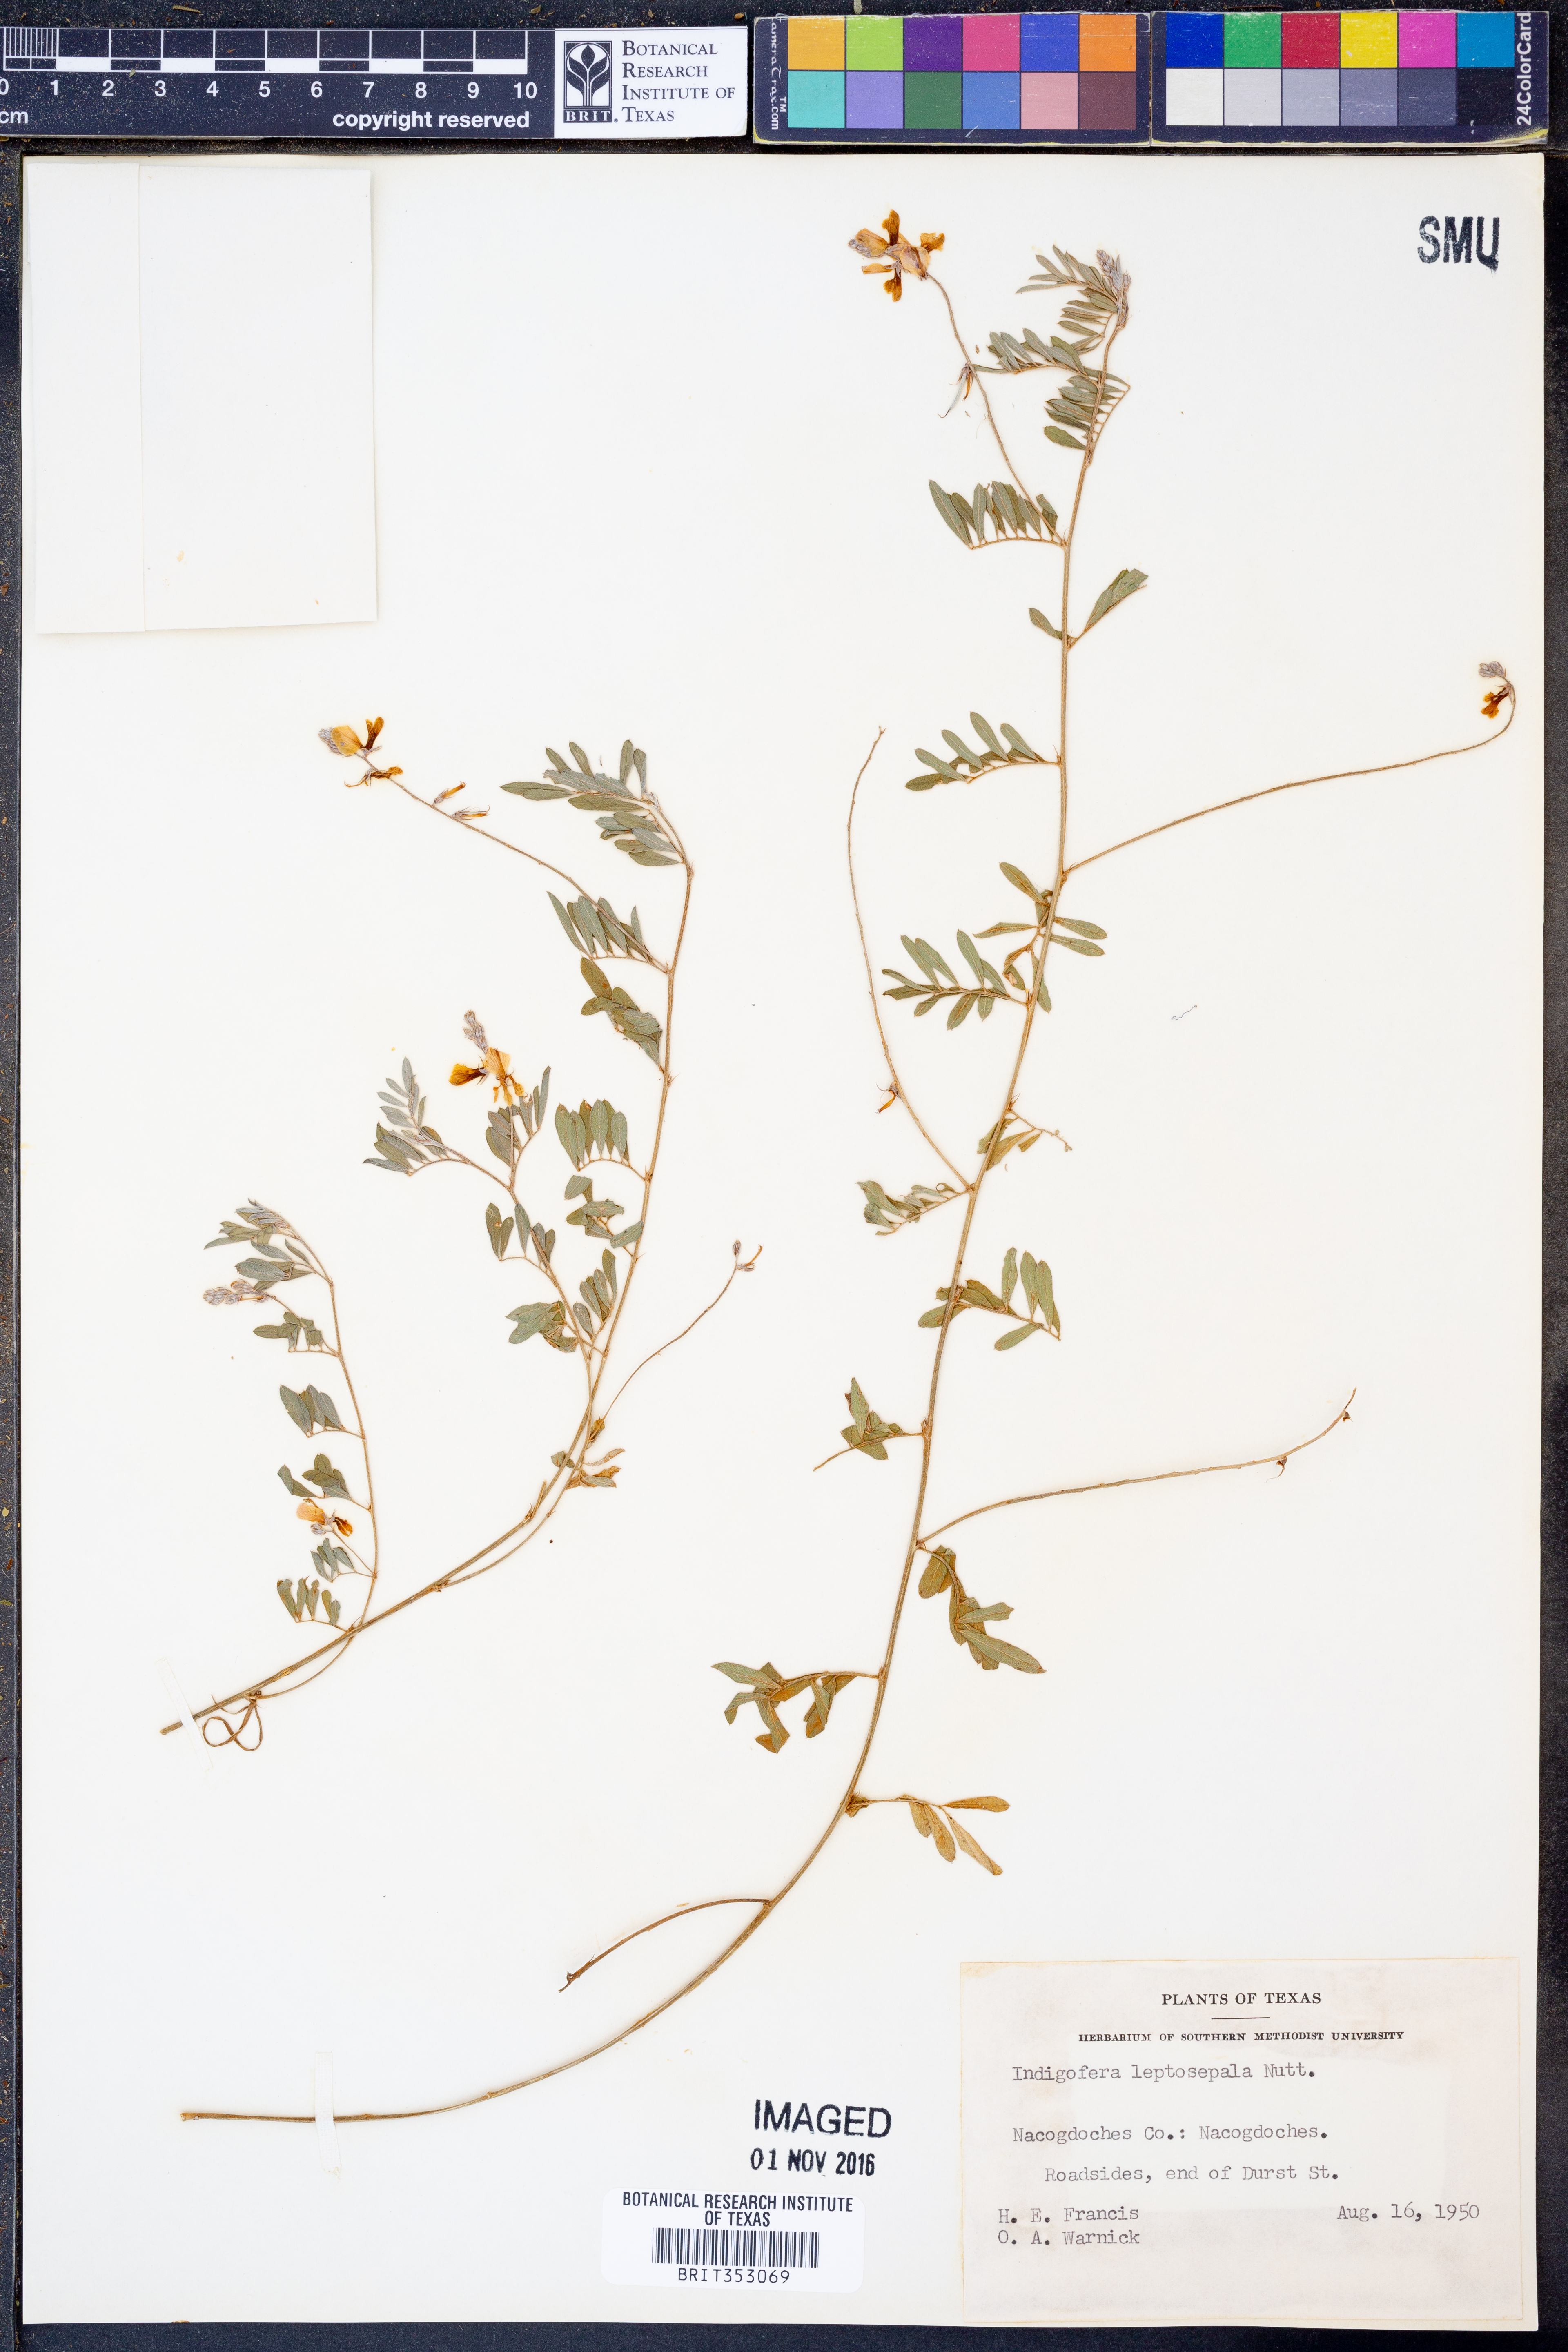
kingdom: Plantae
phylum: Tracheophyta
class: Magnoliopsida
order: Fabales
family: Fabaceae
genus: Indigofera
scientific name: Indigofera argutidens
